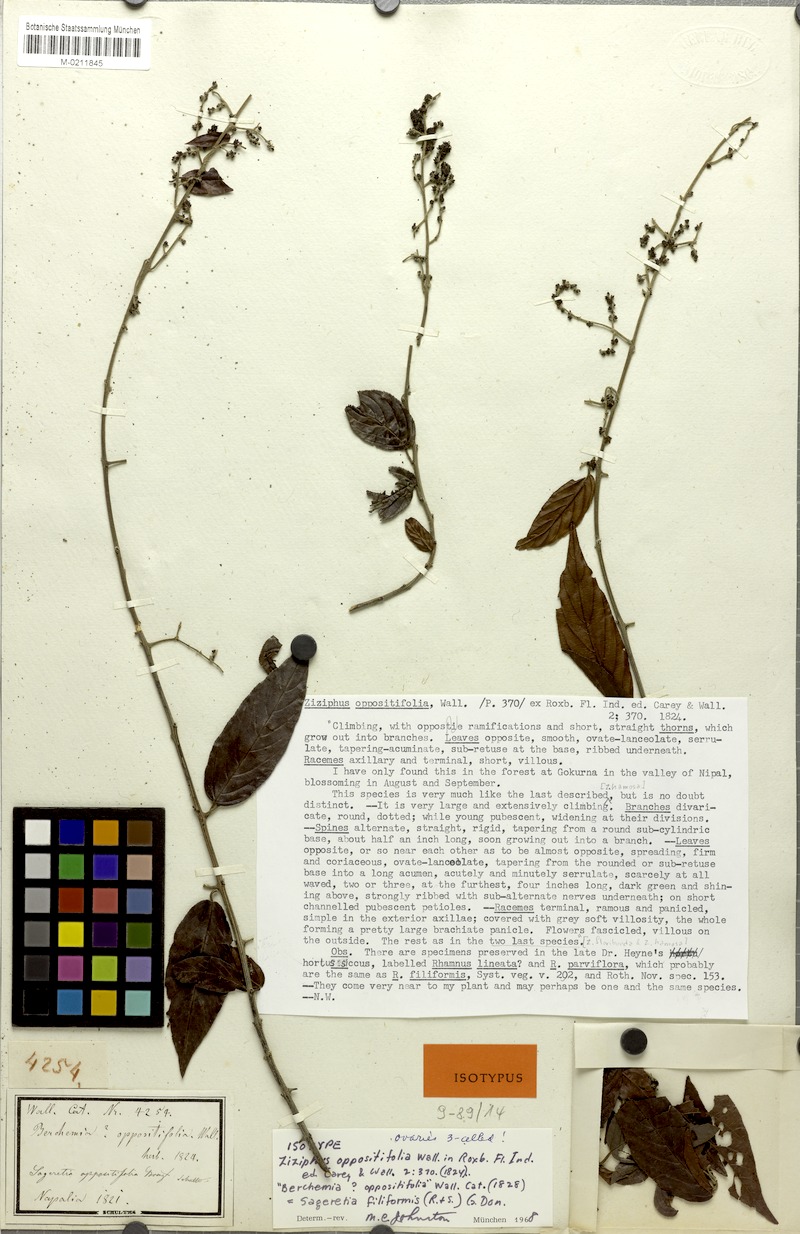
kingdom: Plantae
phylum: Tracheophyta
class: Magnoliopsida
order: Rosales
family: Rhamnaceae
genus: Sageretia
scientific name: Sageretia filiformis
